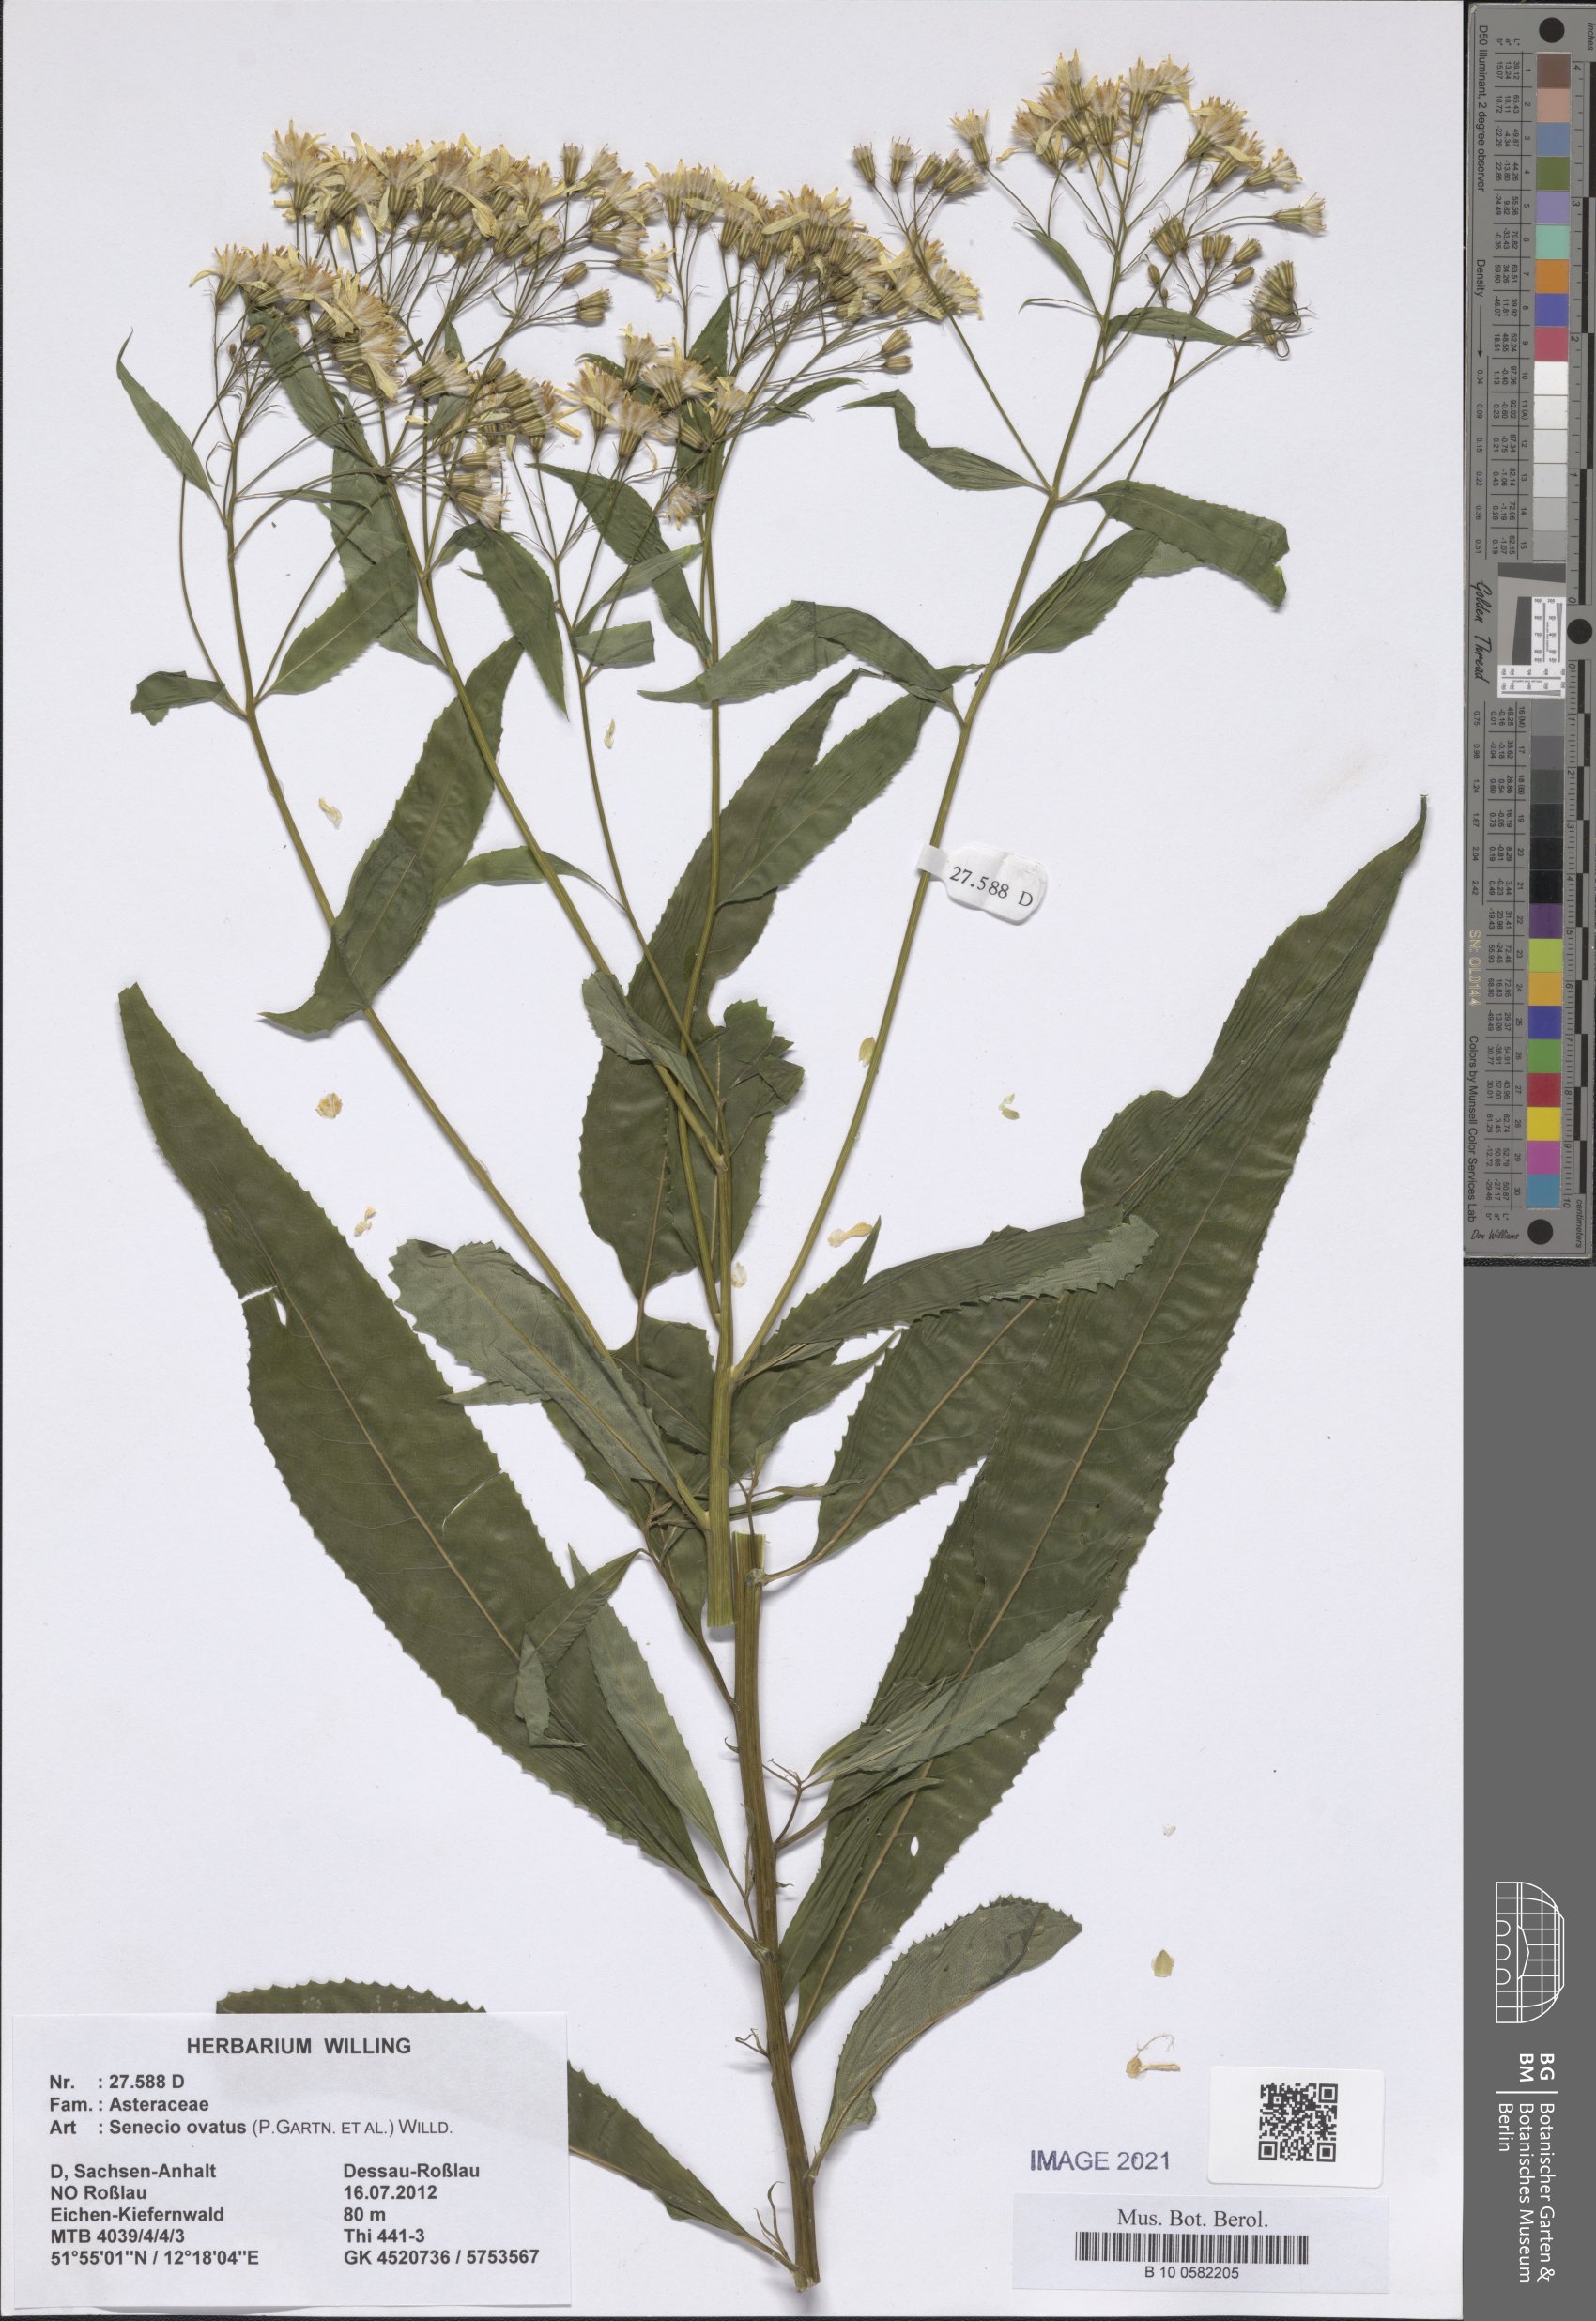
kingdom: Plantae
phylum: Tracheophyta
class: Magnoliopsida
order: Asterales
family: Asteraceae
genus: Senecio
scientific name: Senecio ovatus
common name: Wood ragwort
